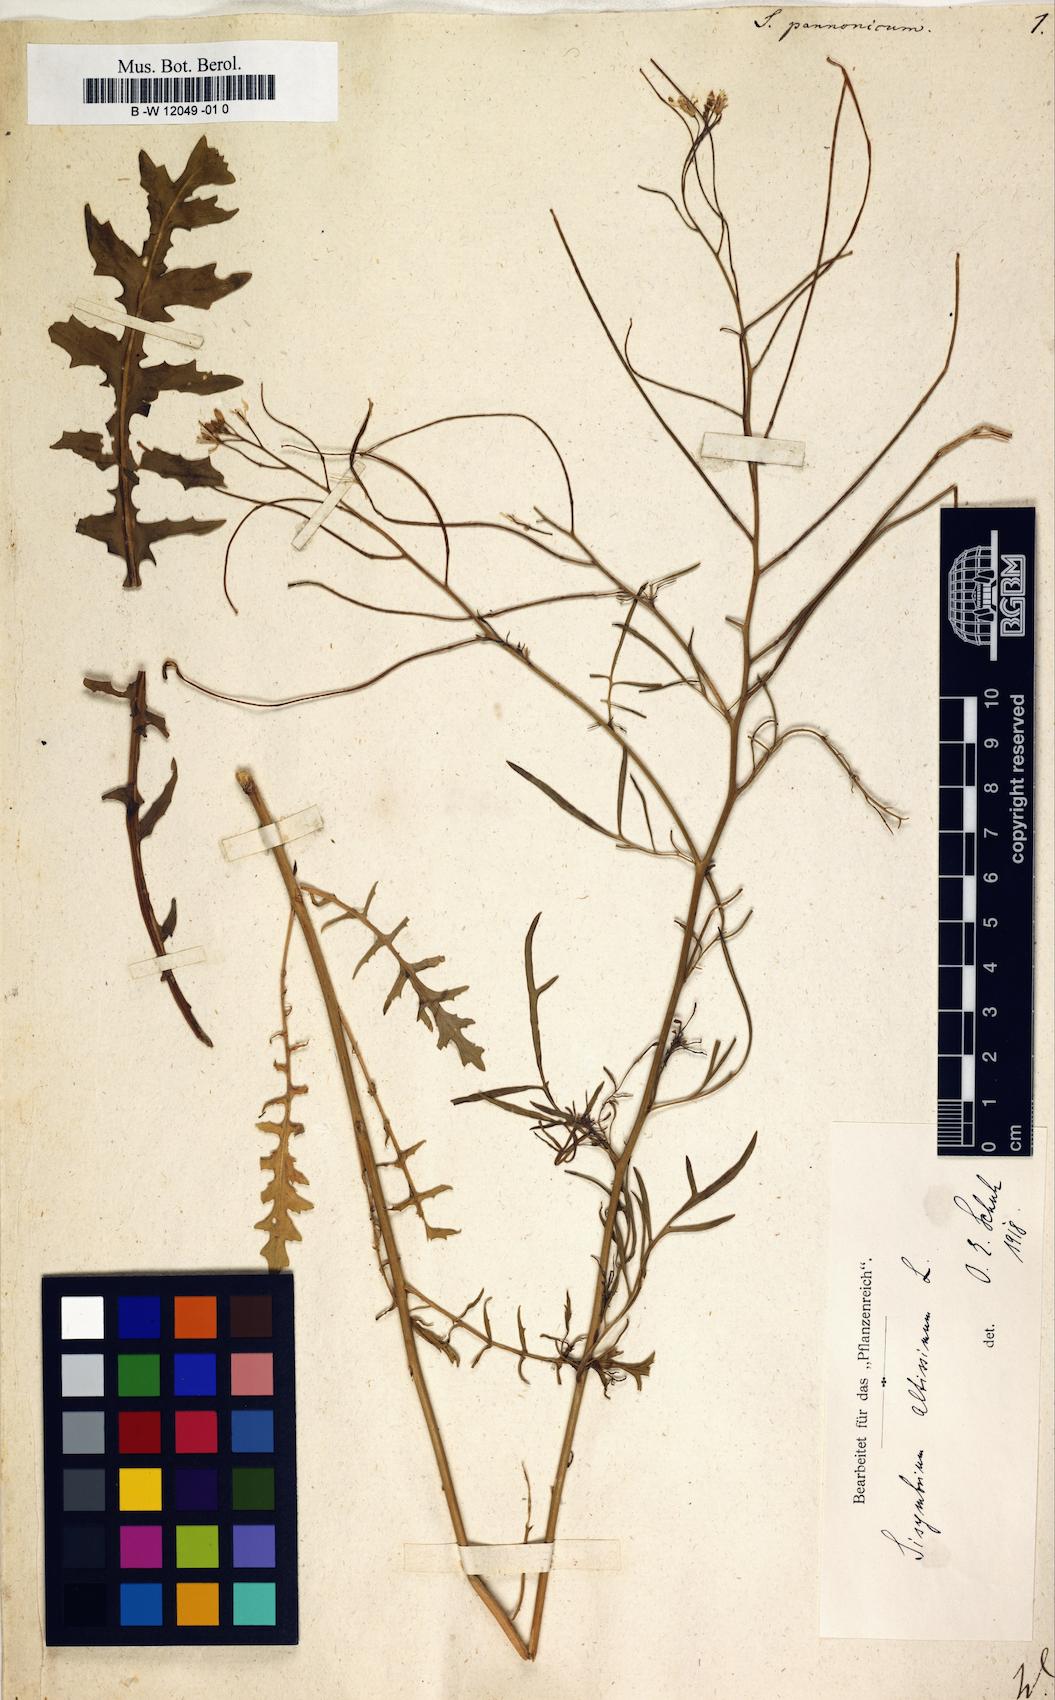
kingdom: Plantae
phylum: Tracheophyta
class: Magnoliopsida
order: Brassicales
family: Brassicaceae
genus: Sisymbrium
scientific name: Sisymbrium
